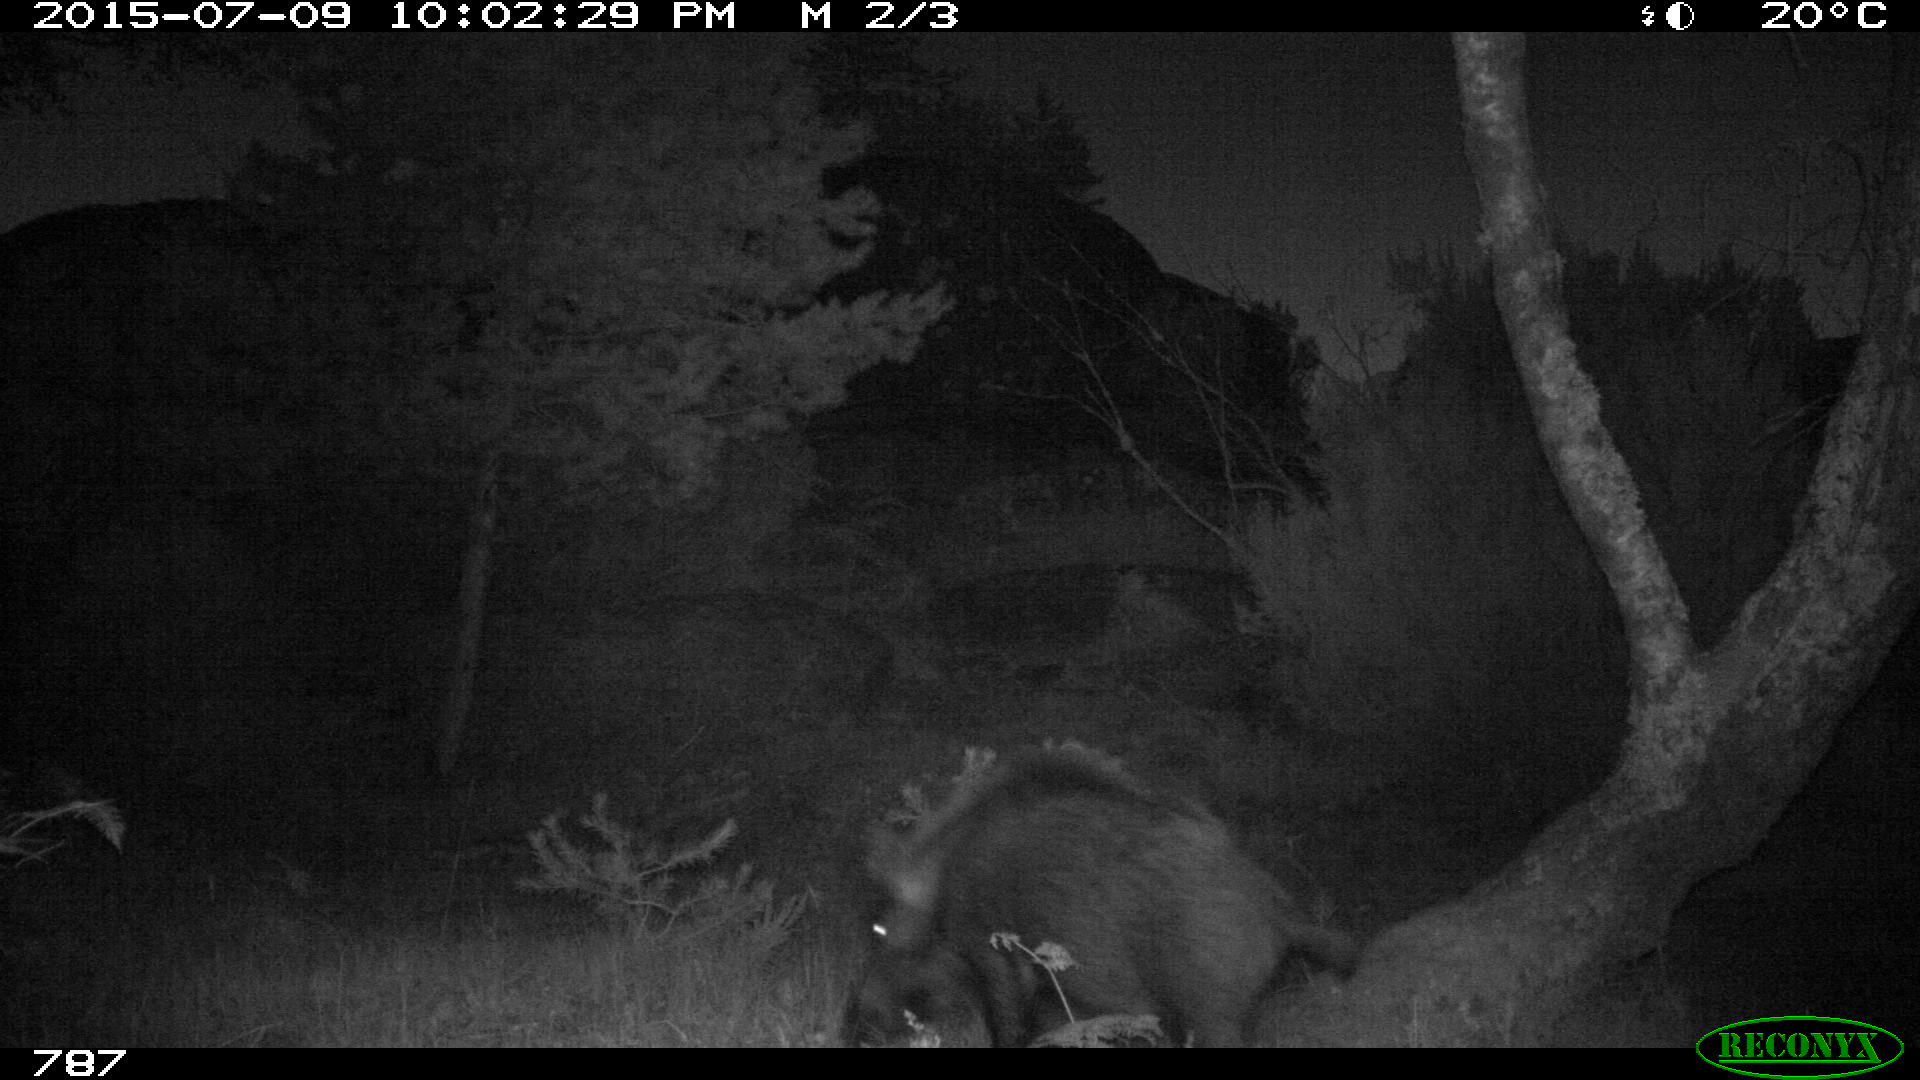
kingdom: Animalia
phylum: Chordata
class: Mammalia
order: Artiodactyla
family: Suidae
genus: Sus
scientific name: Sus scrofa
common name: Wild boar
